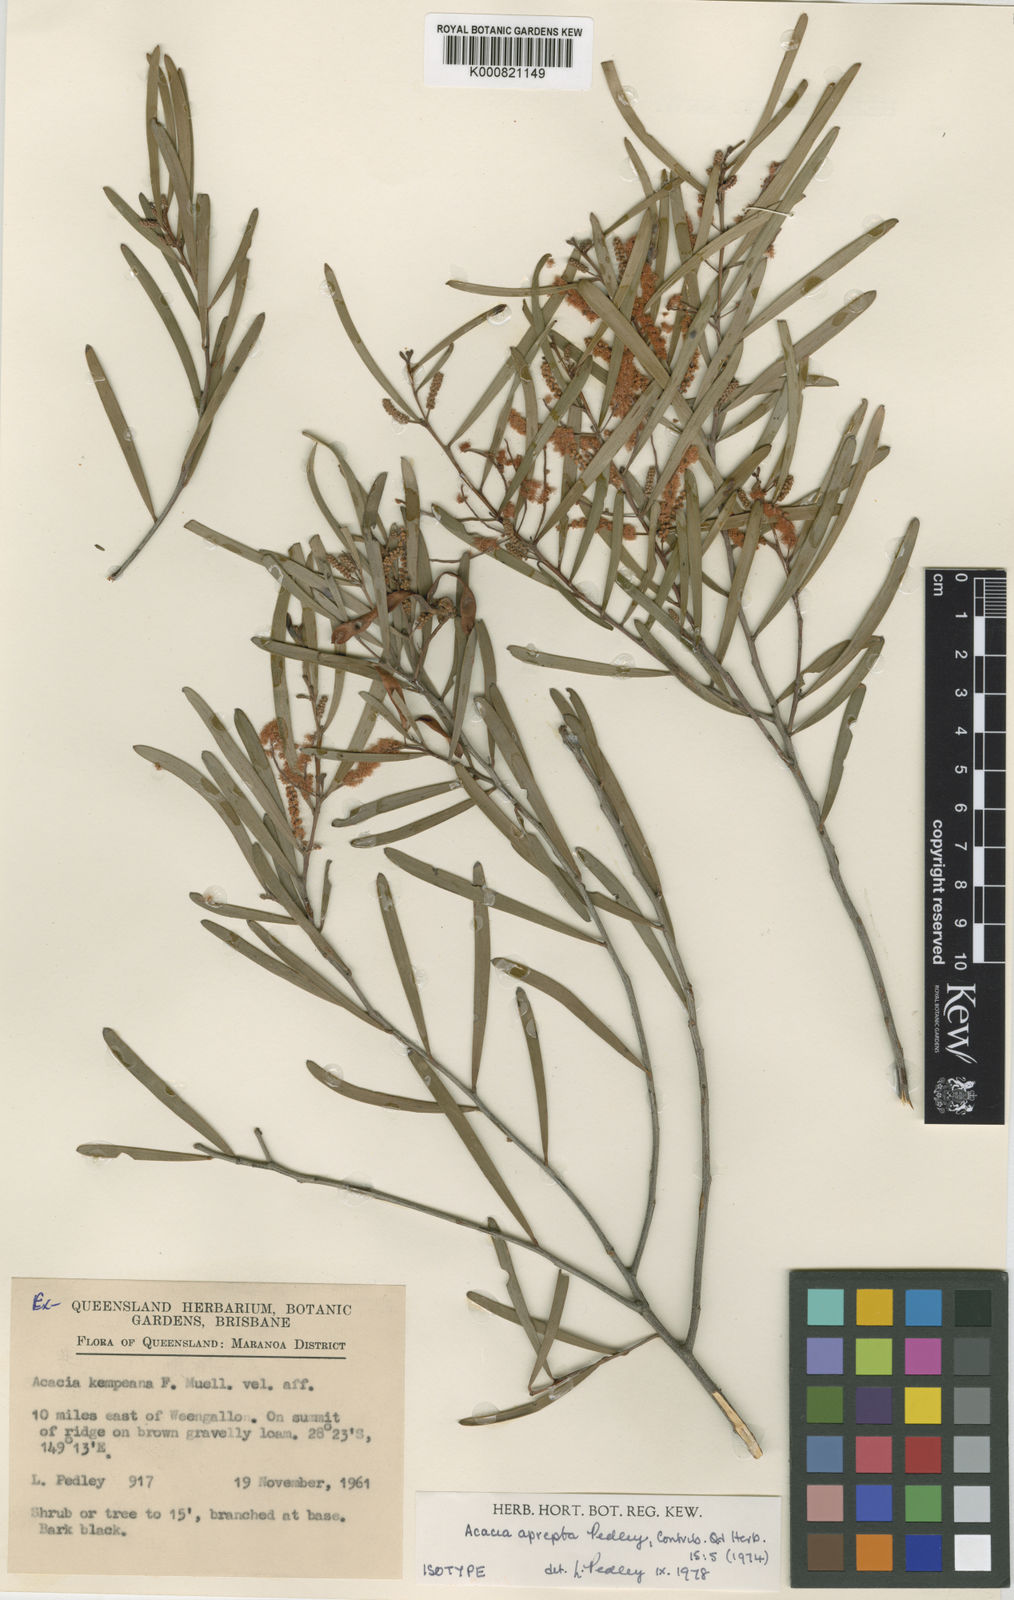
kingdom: Plantae
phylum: Tracheophyta
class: Magnoliopsida
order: Fabales
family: Fabaceae
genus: Acacia
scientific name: Acacia aprepta
